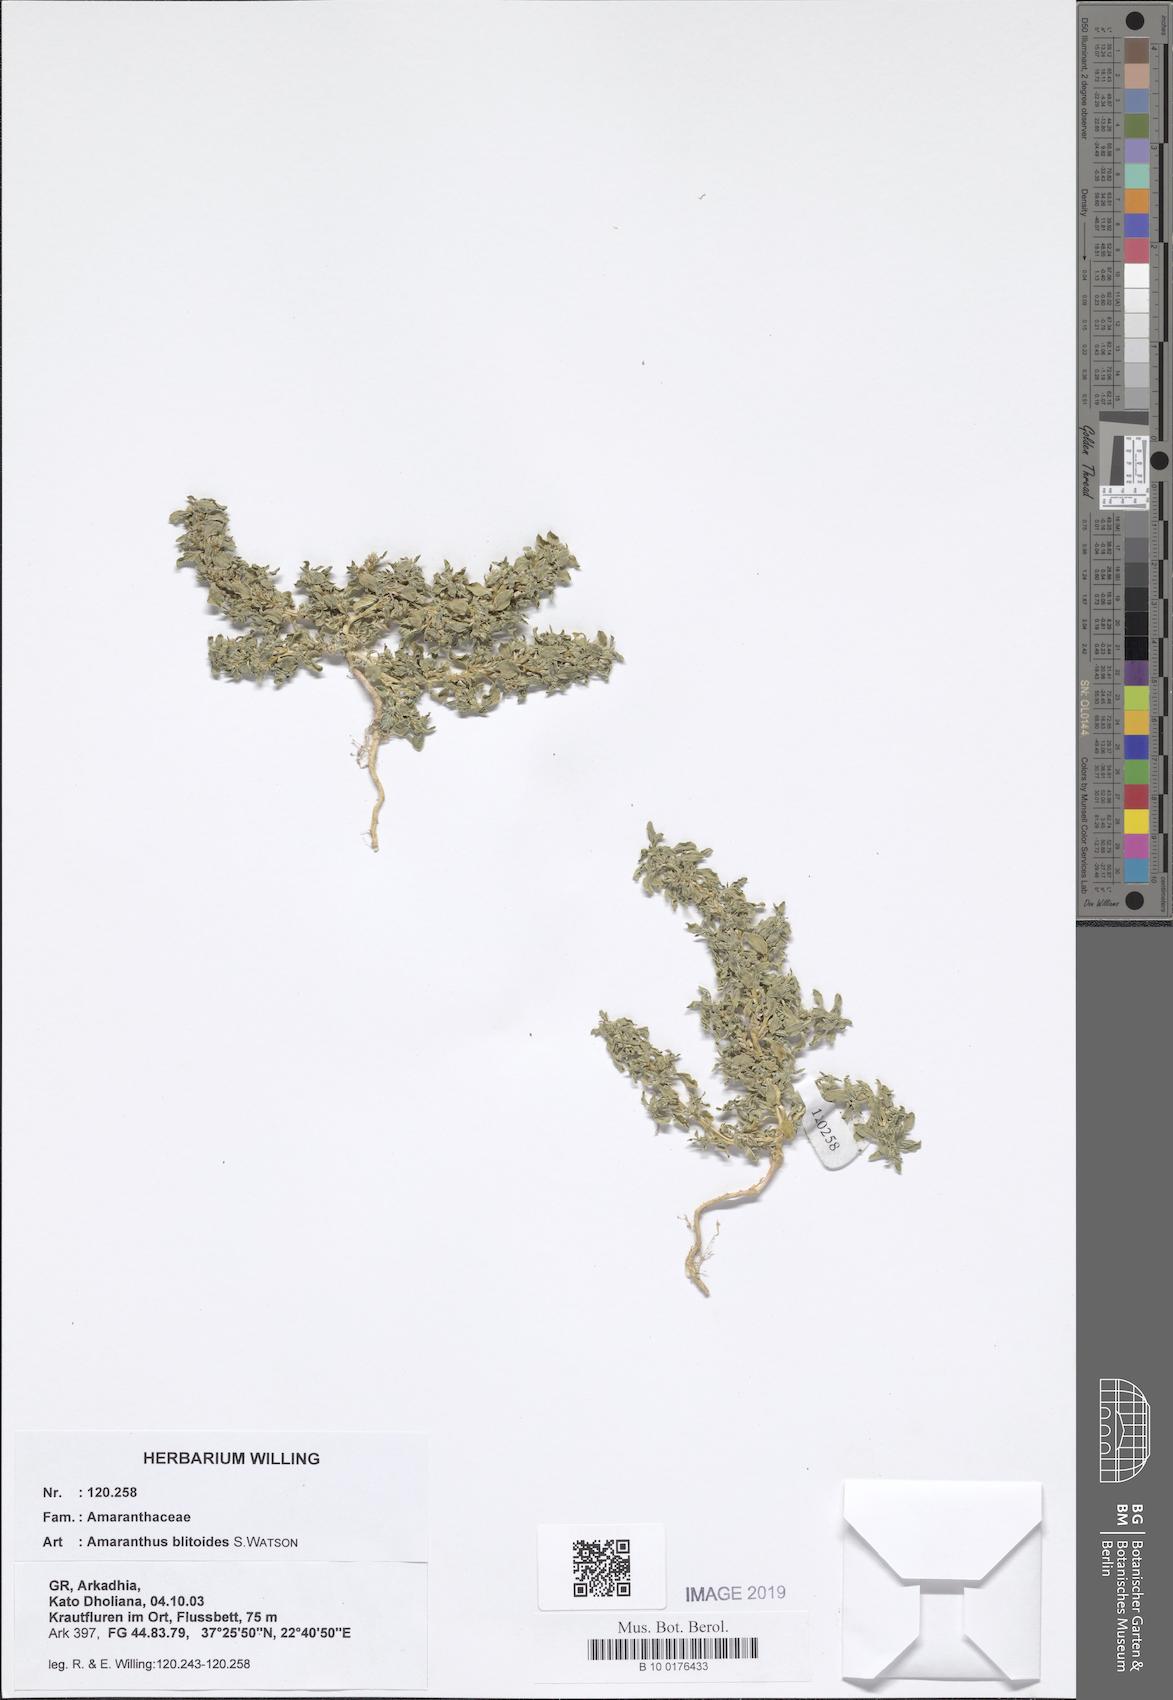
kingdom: Plantae
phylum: Tracheophyta
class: Magnoliopsida
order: Caryophyllales
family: Amaranthaceae
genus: Amaranthus
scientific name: Amaranthus blitoides
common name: Prostrate pigweed
